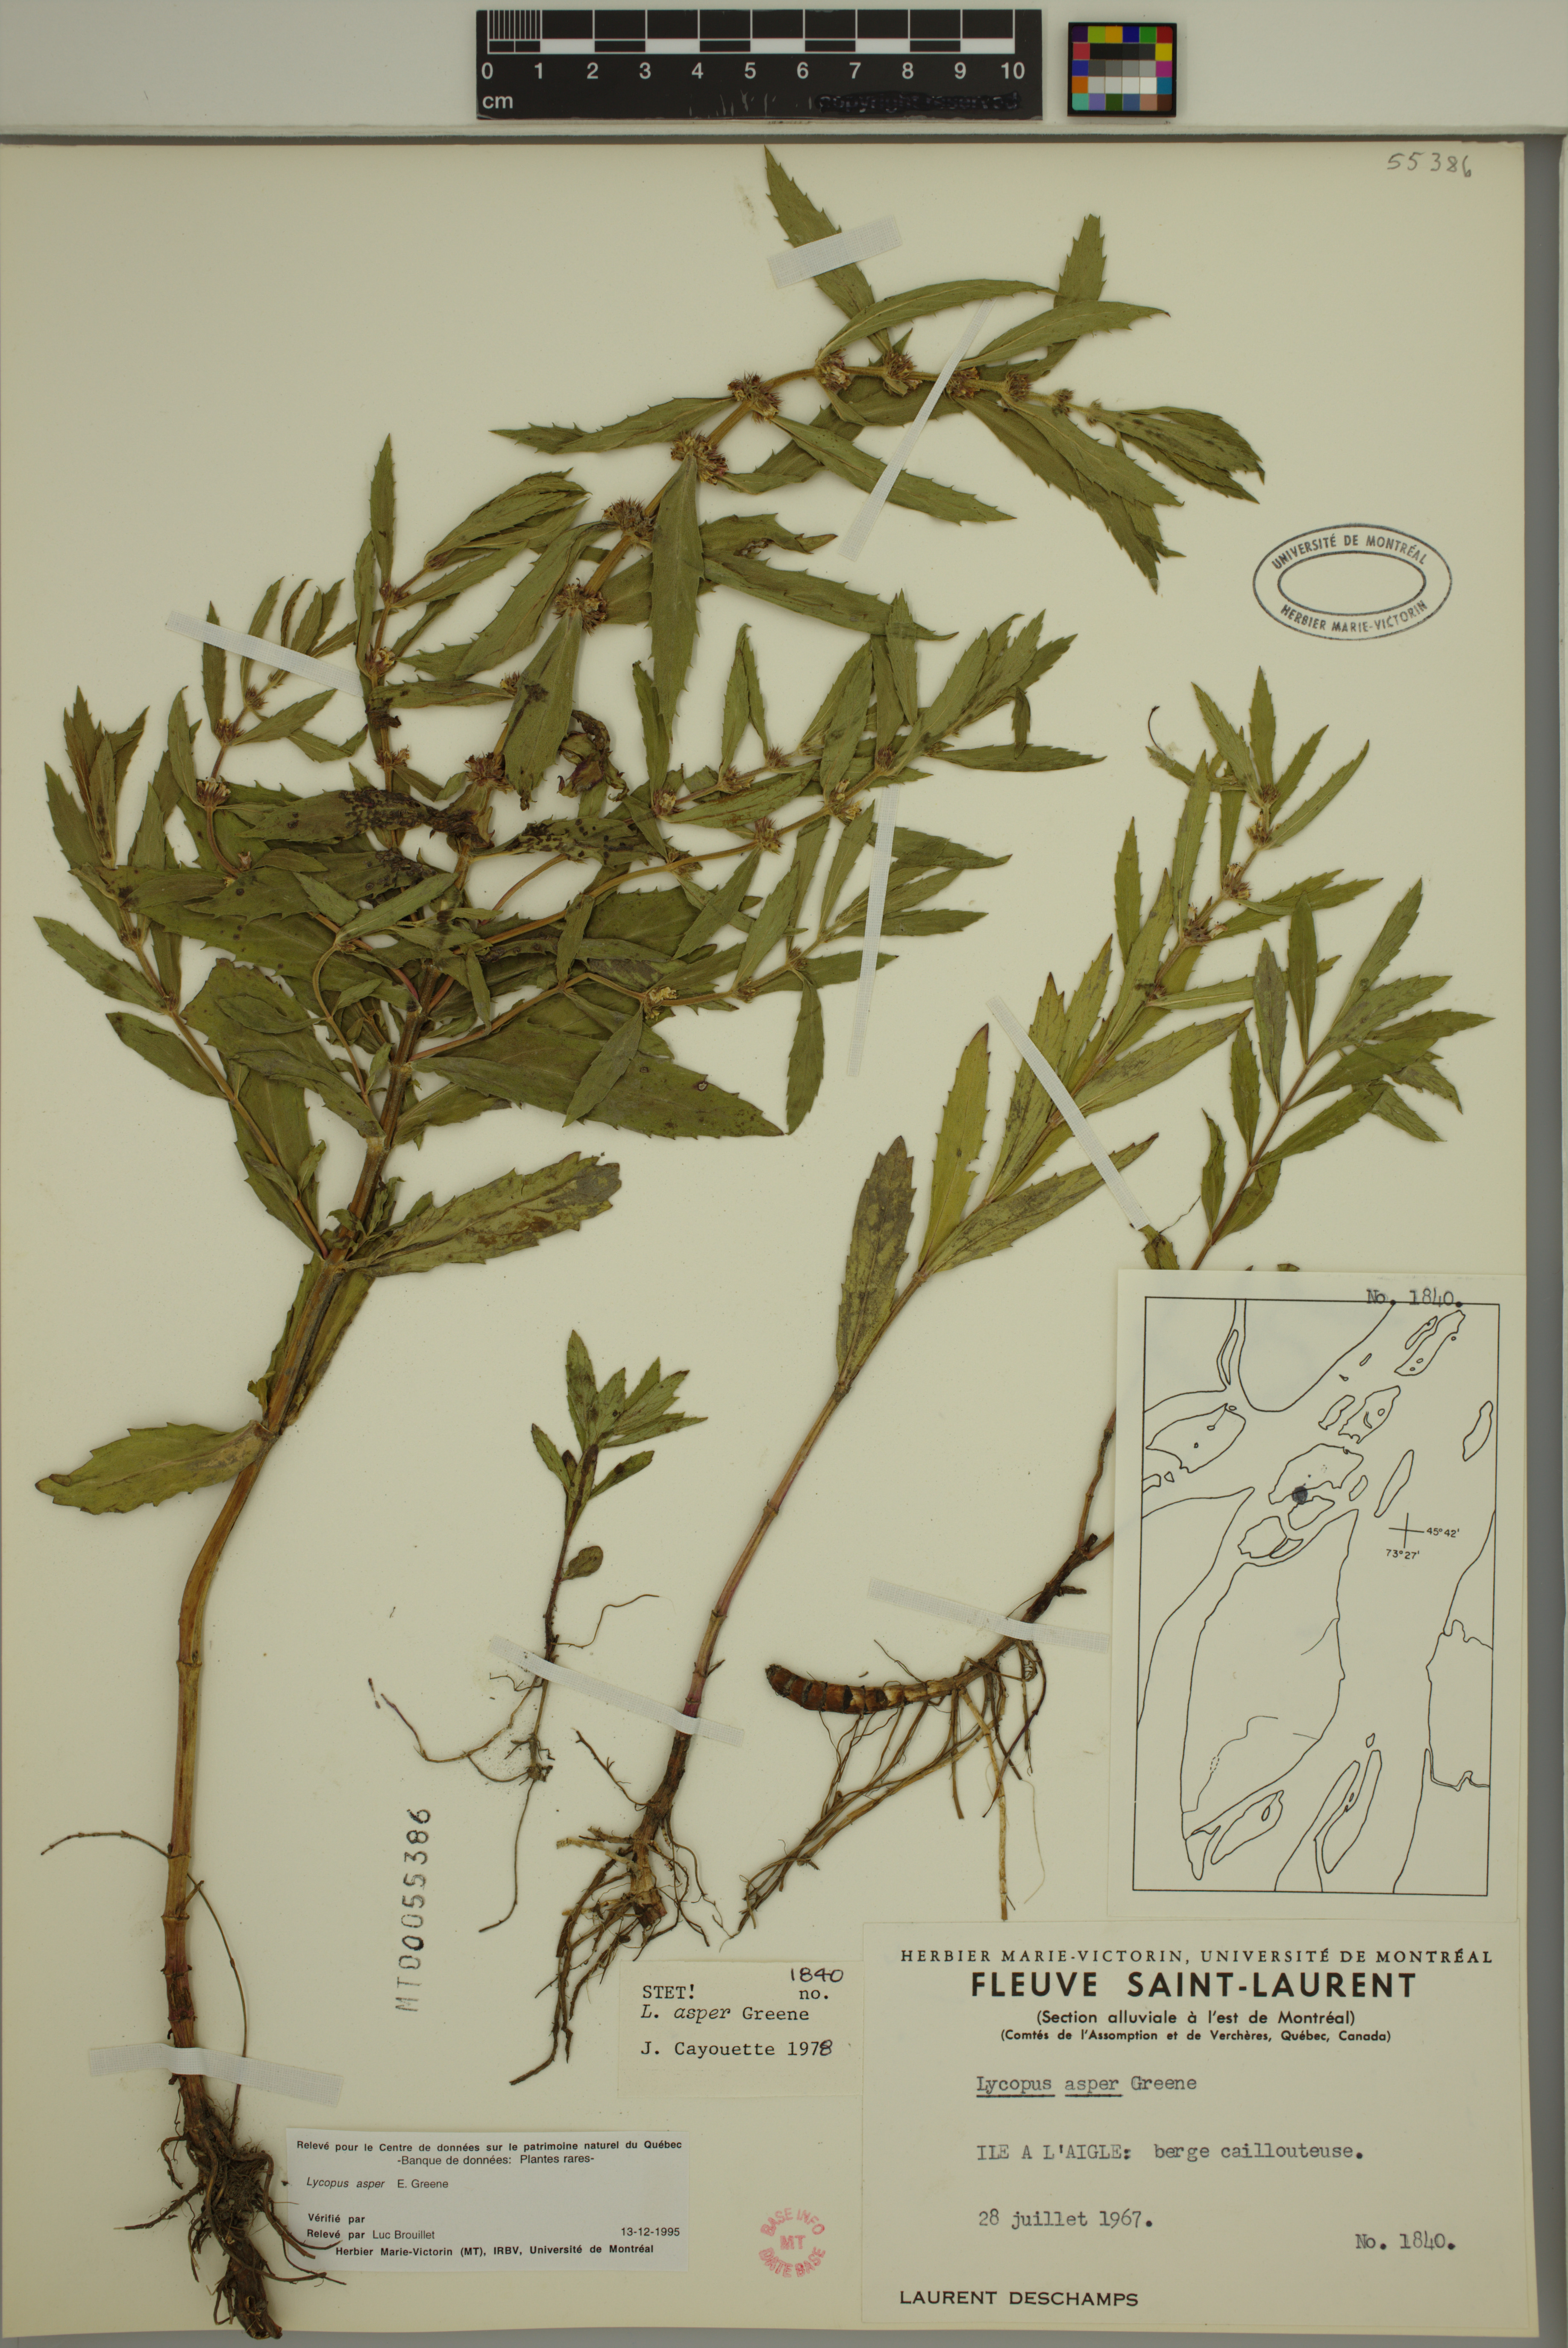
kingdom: Plantae
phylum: Tracheophyta
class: Magnoliopsida
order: Lamiales
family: Lamiaceae
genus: Lycopus
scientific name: Lycopus asper
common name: Rough water-horehound
